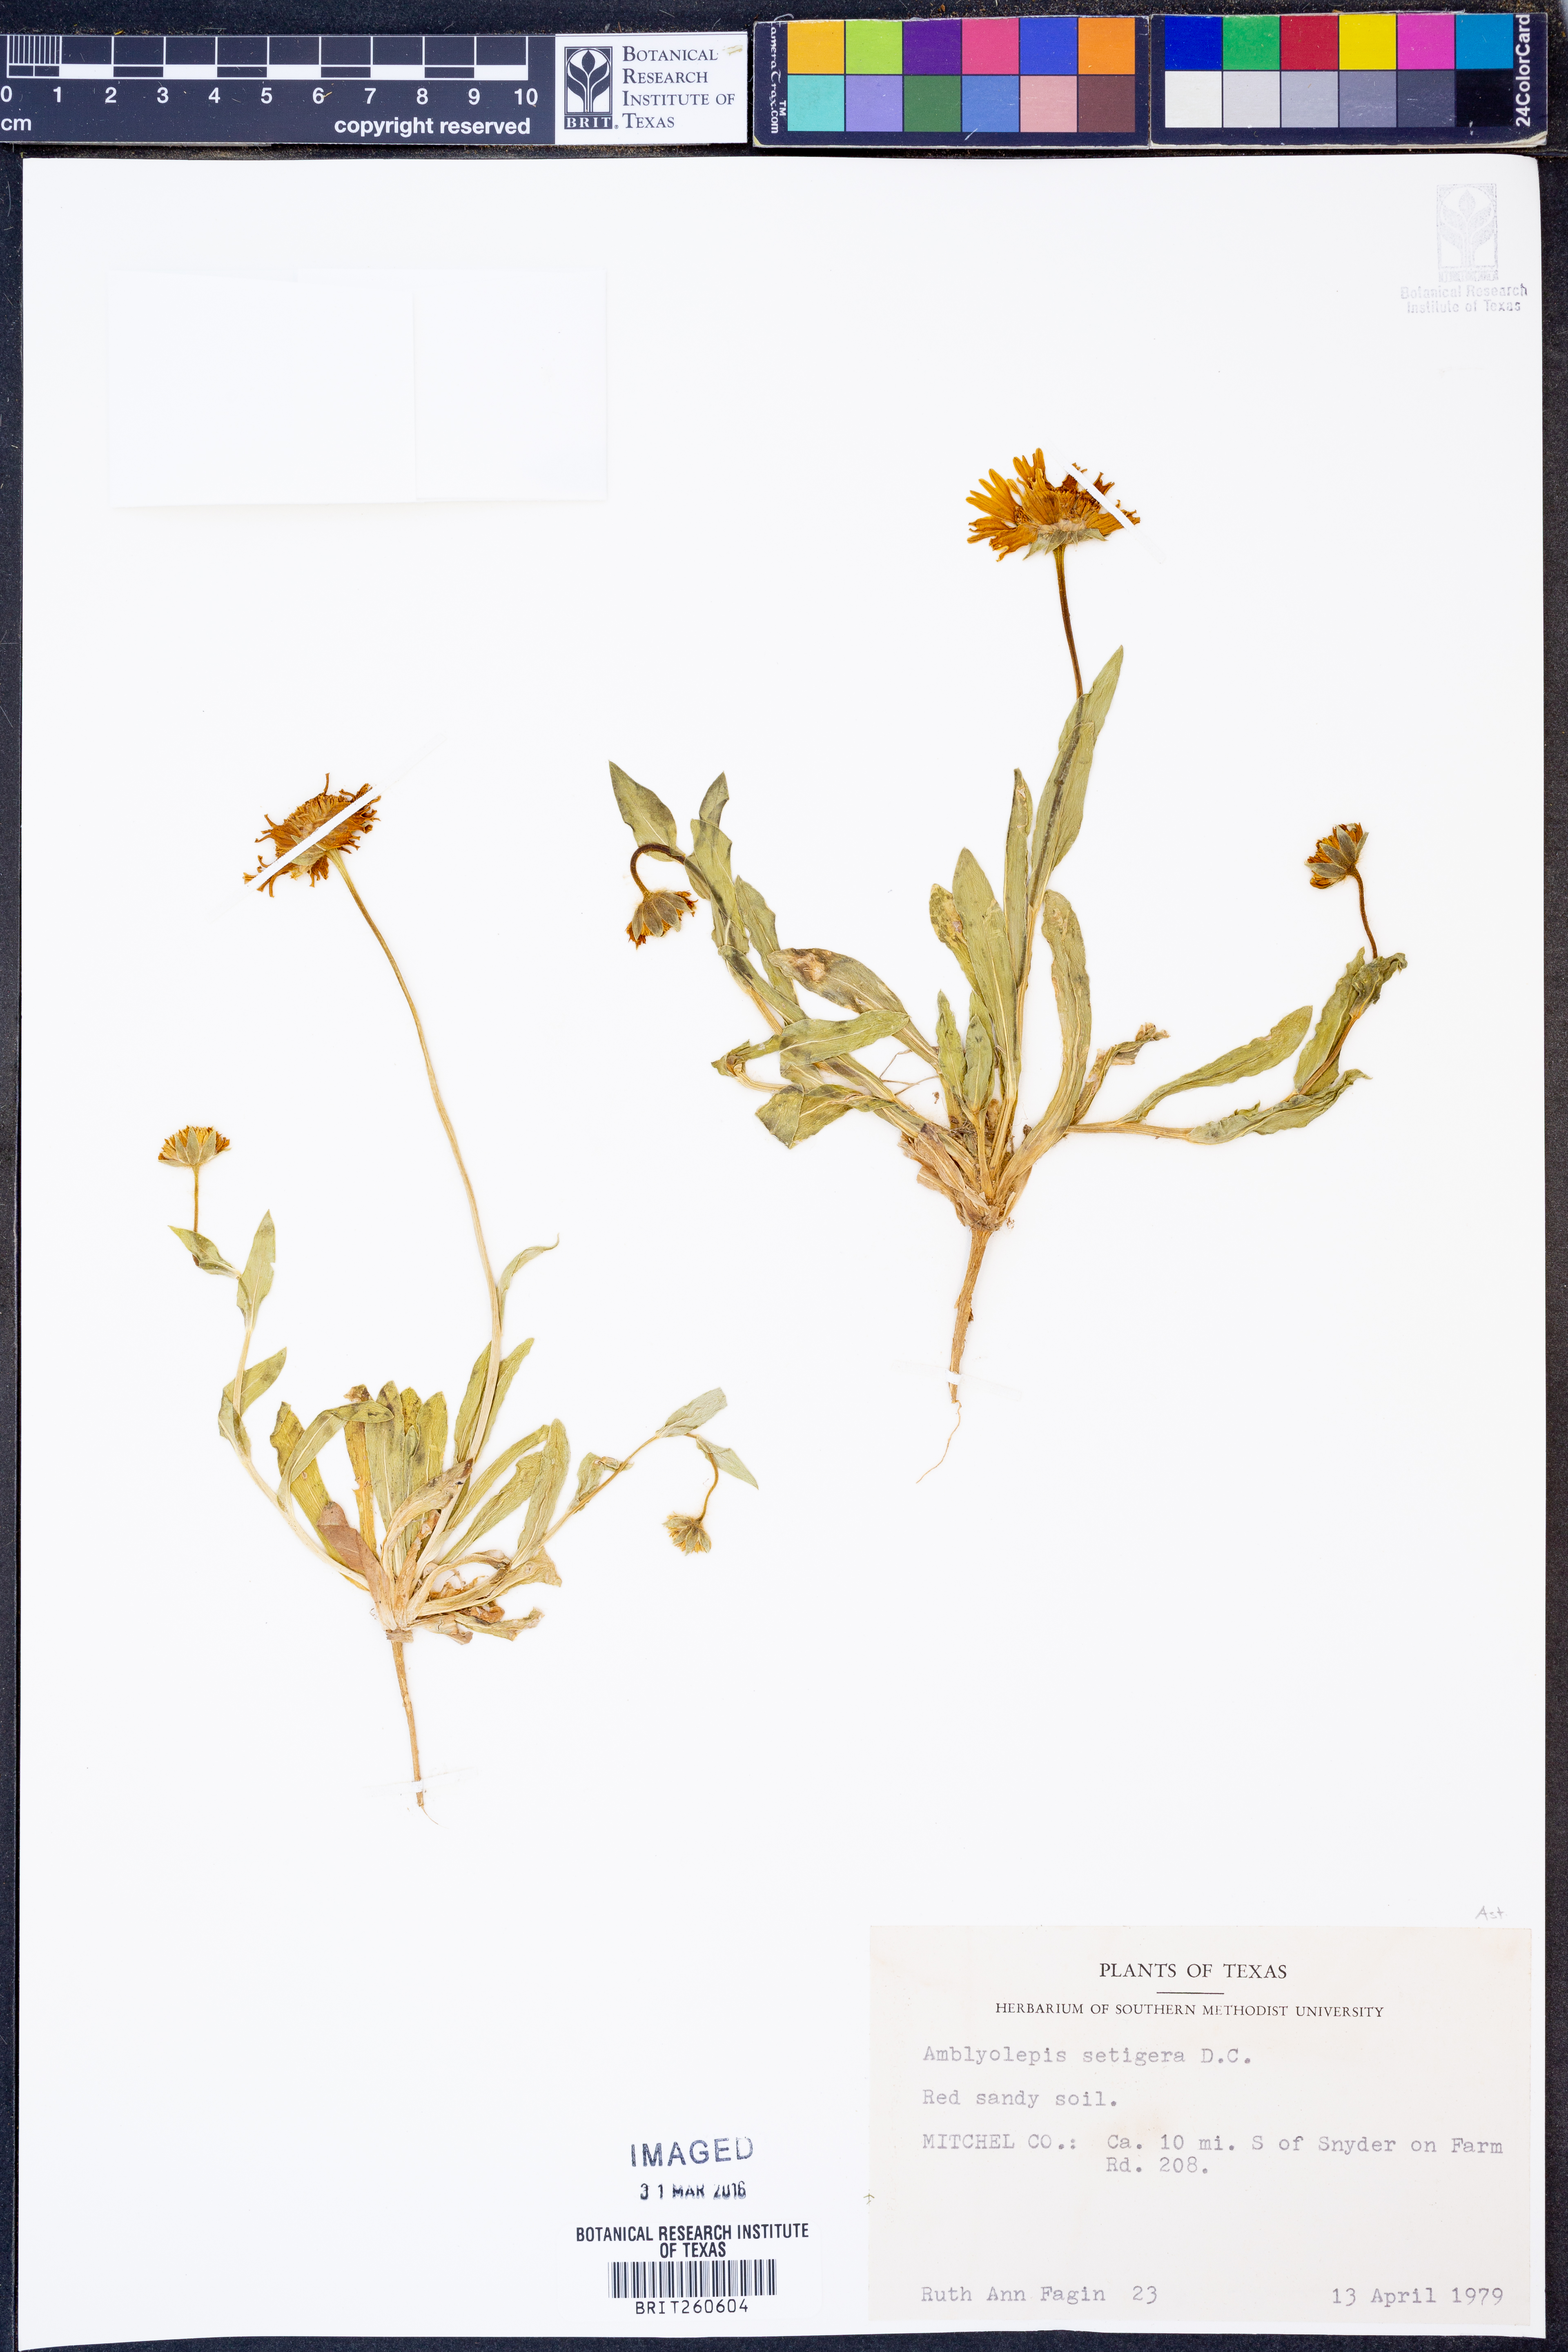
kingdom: Plantae
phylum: Tracheophyta
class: Magnoliopsida
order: Asterales
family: Asteraceae
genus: Amblyolepis
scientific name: Amblyolepis setigera
